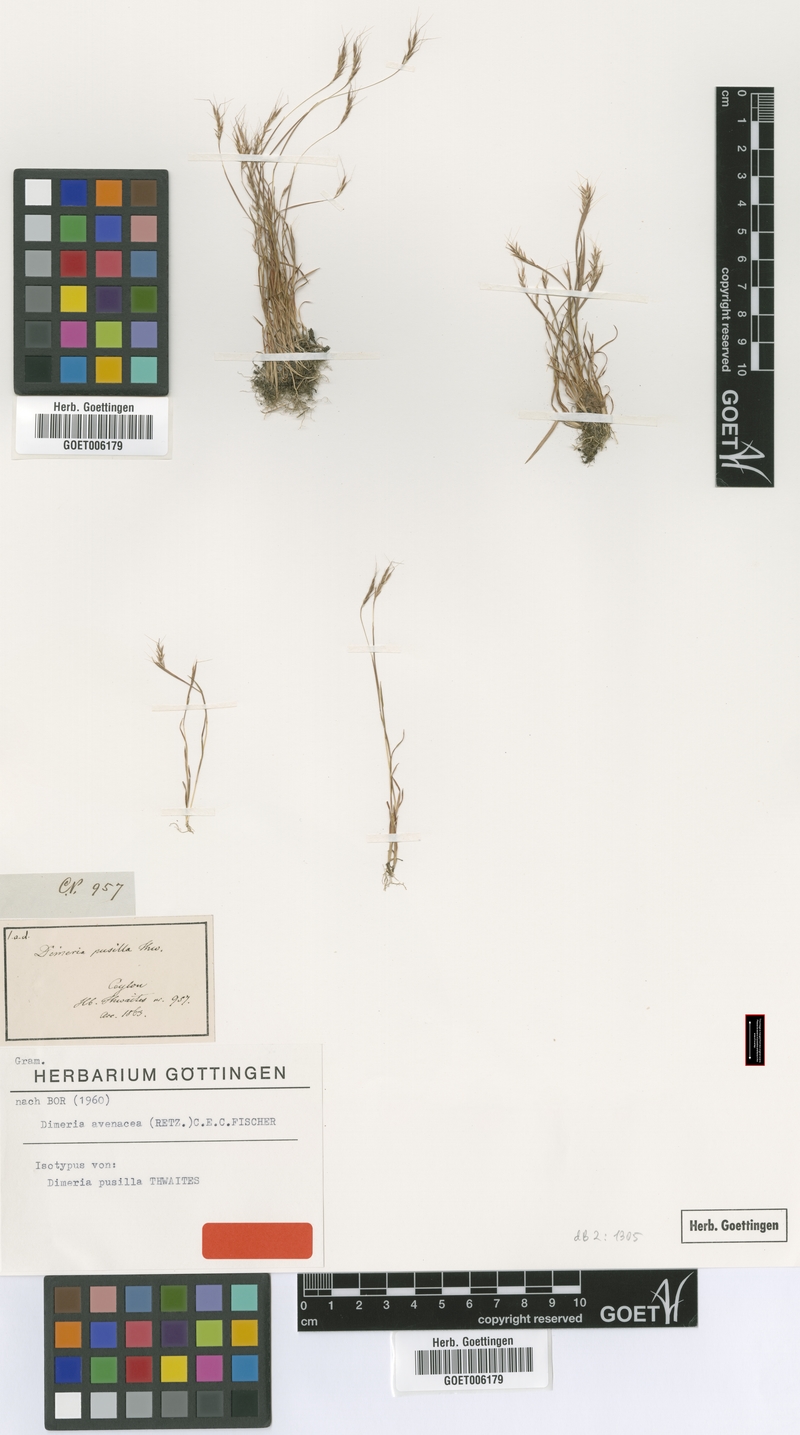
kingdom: Plantae
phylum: Tracheophyta
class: Liliopsida
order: Poales
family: Poaceae
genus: Dimeria
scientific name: Dimeria avenacea
